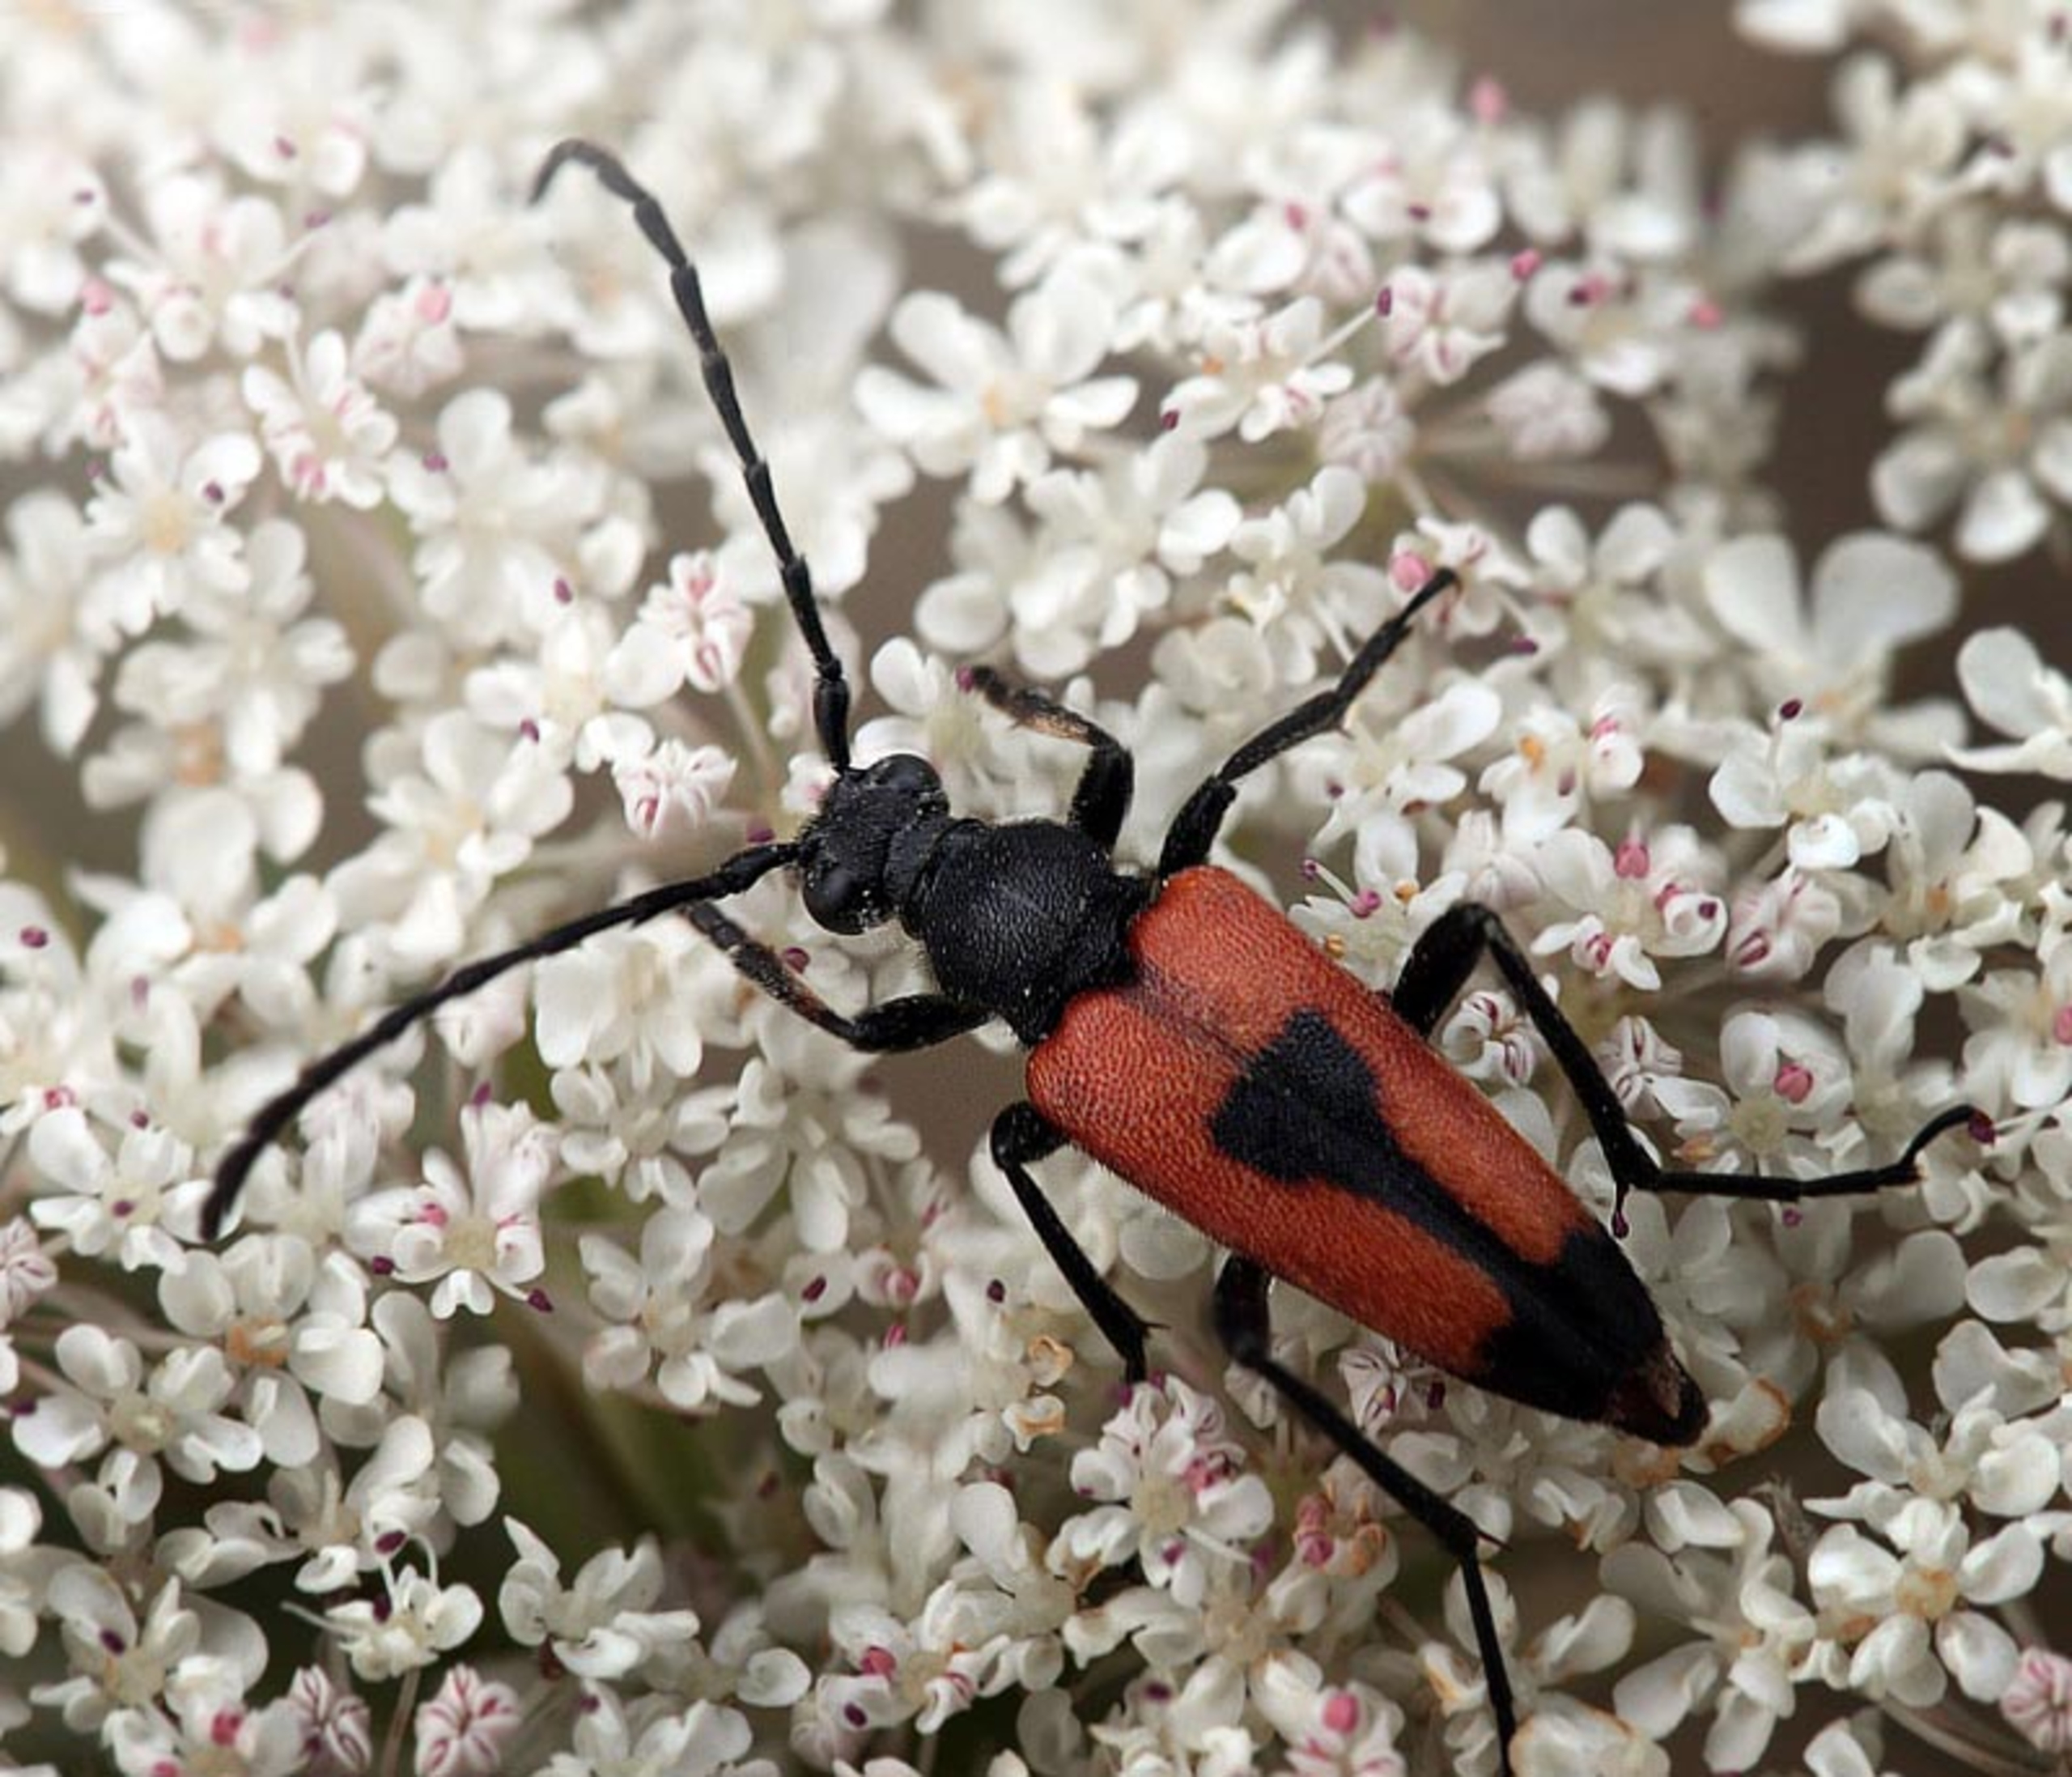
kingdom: Animalia
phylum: Arthropoda
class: Insecta
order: Coleoptera
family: Cerambycidae
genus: Stictoleptura
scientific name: Stictoleptura cordigera
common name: Hjerteplettet blomsterbuk
